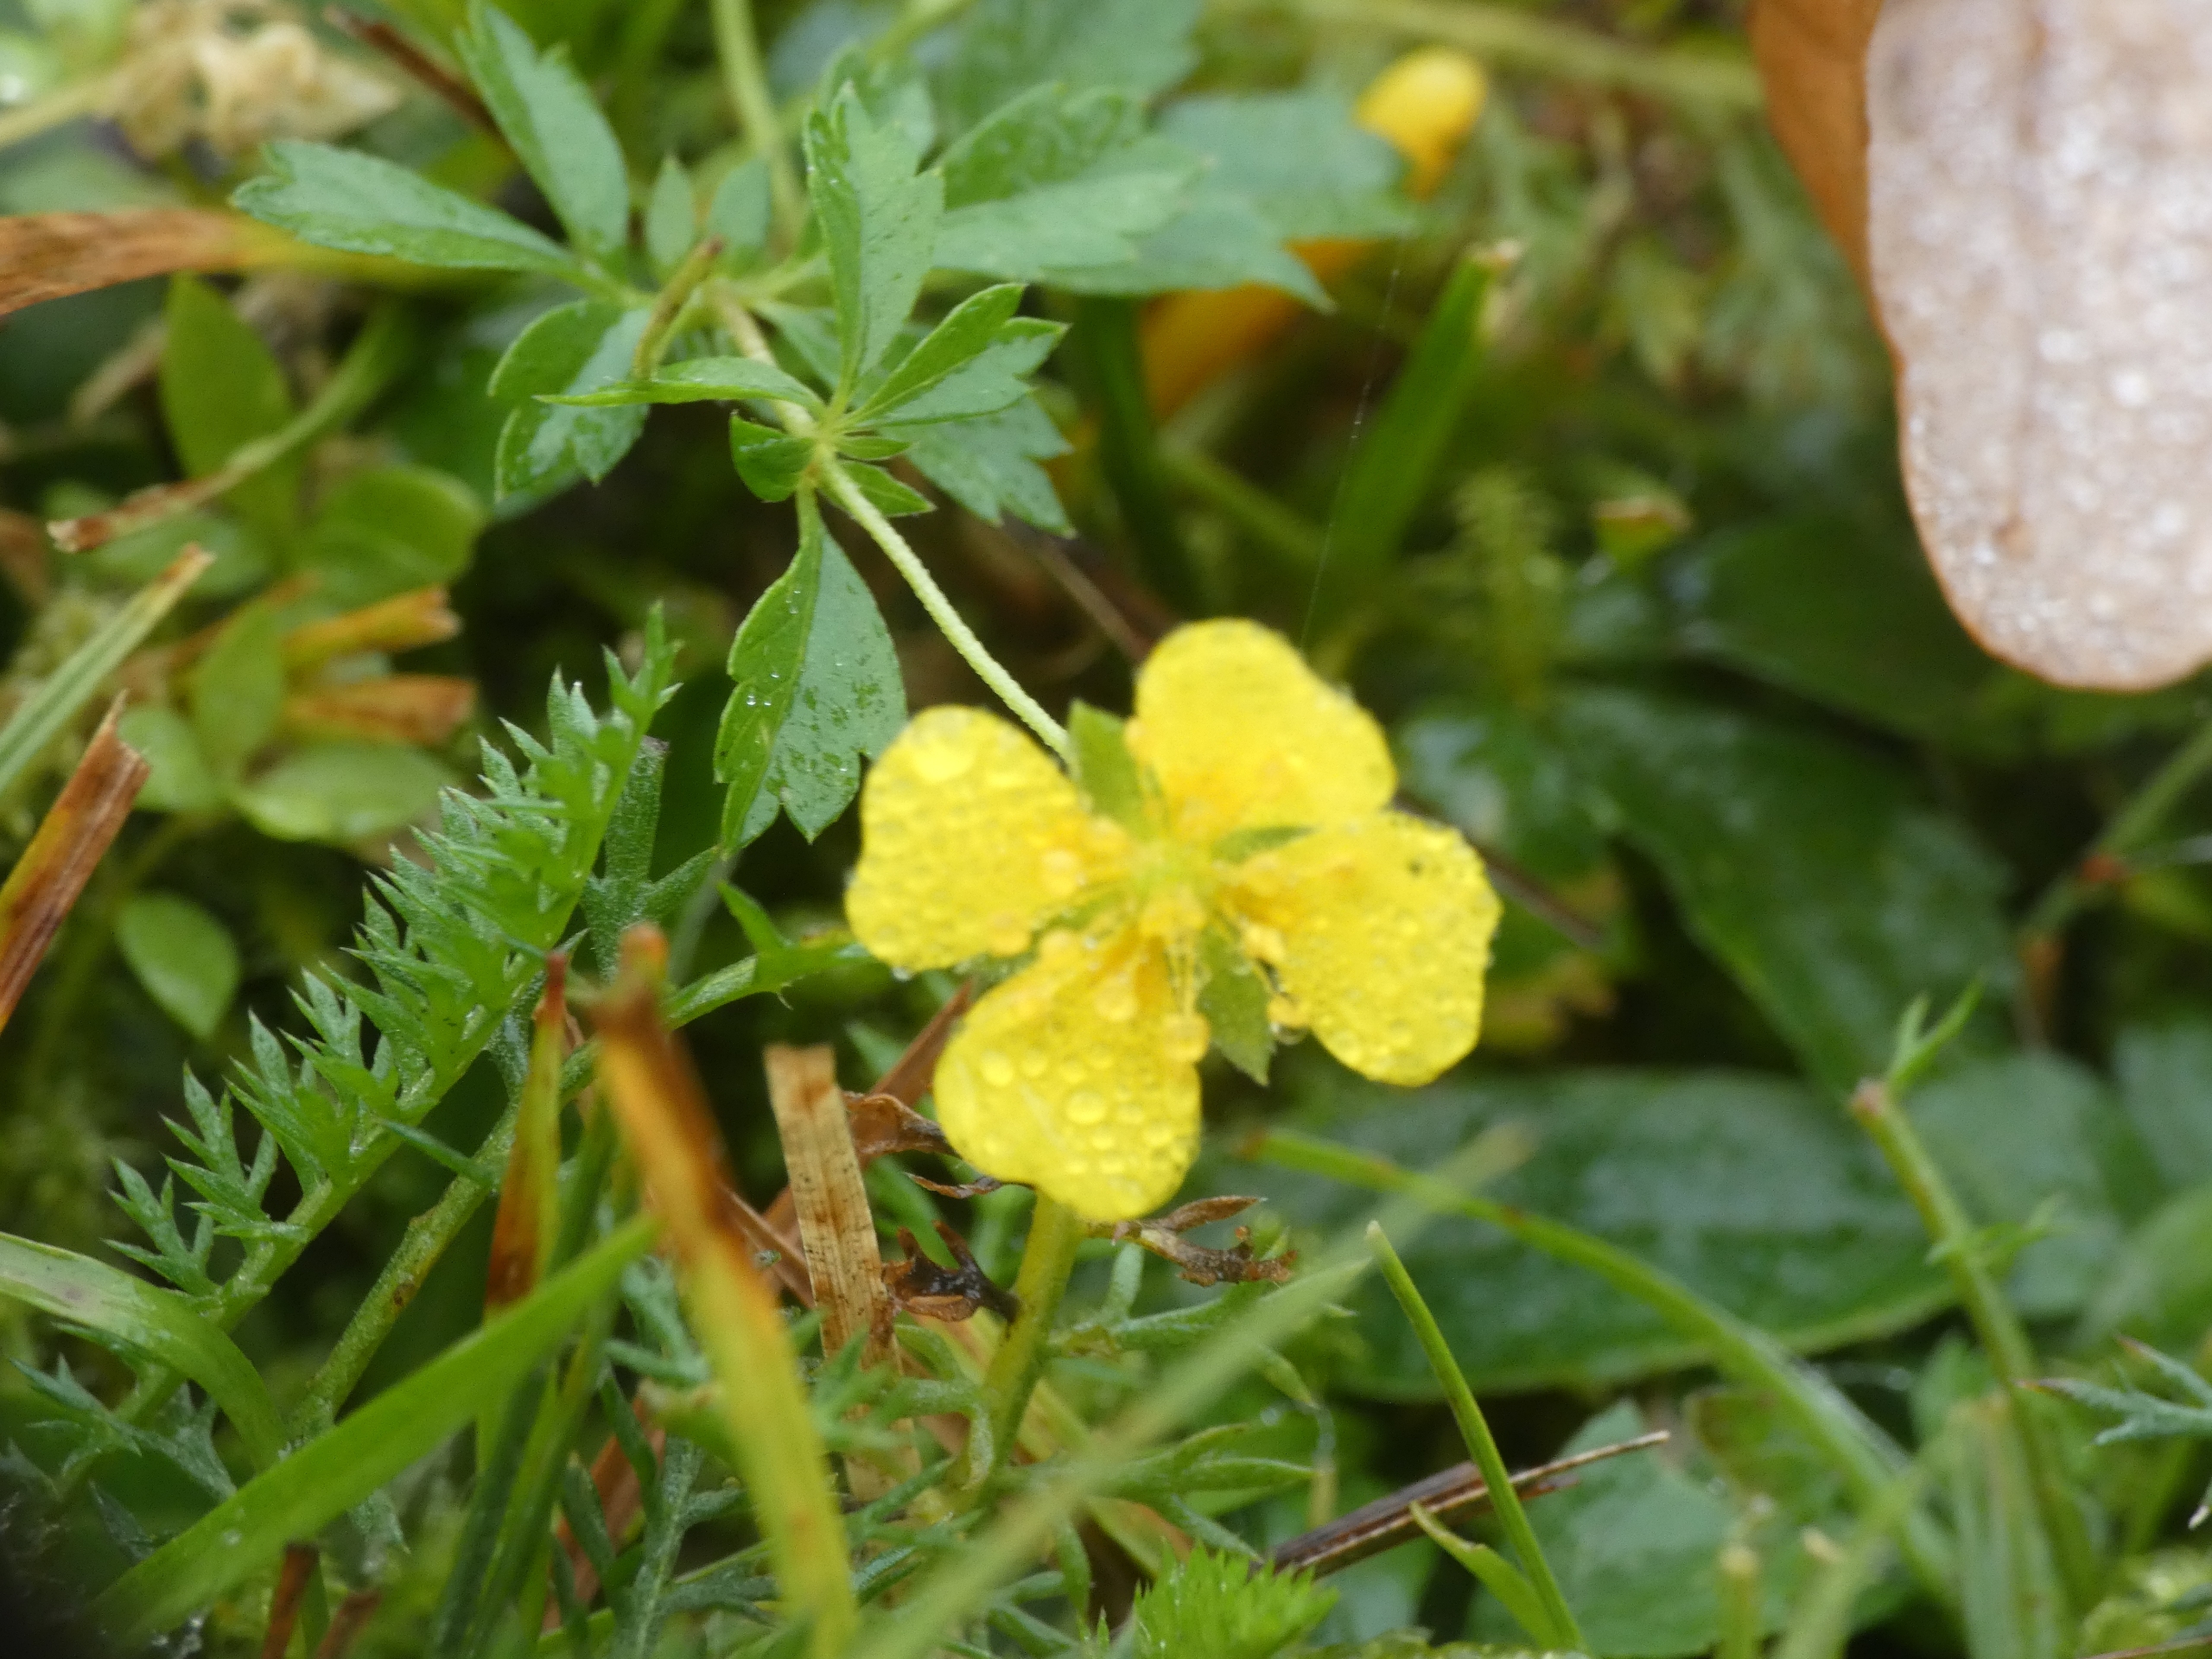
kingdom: Plantae
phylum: Tracheophyta
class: Magnoliopsida
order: Rosales
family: Rosaceae
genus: Potentilla
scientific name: Potentilla erecta
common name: Tormentil
